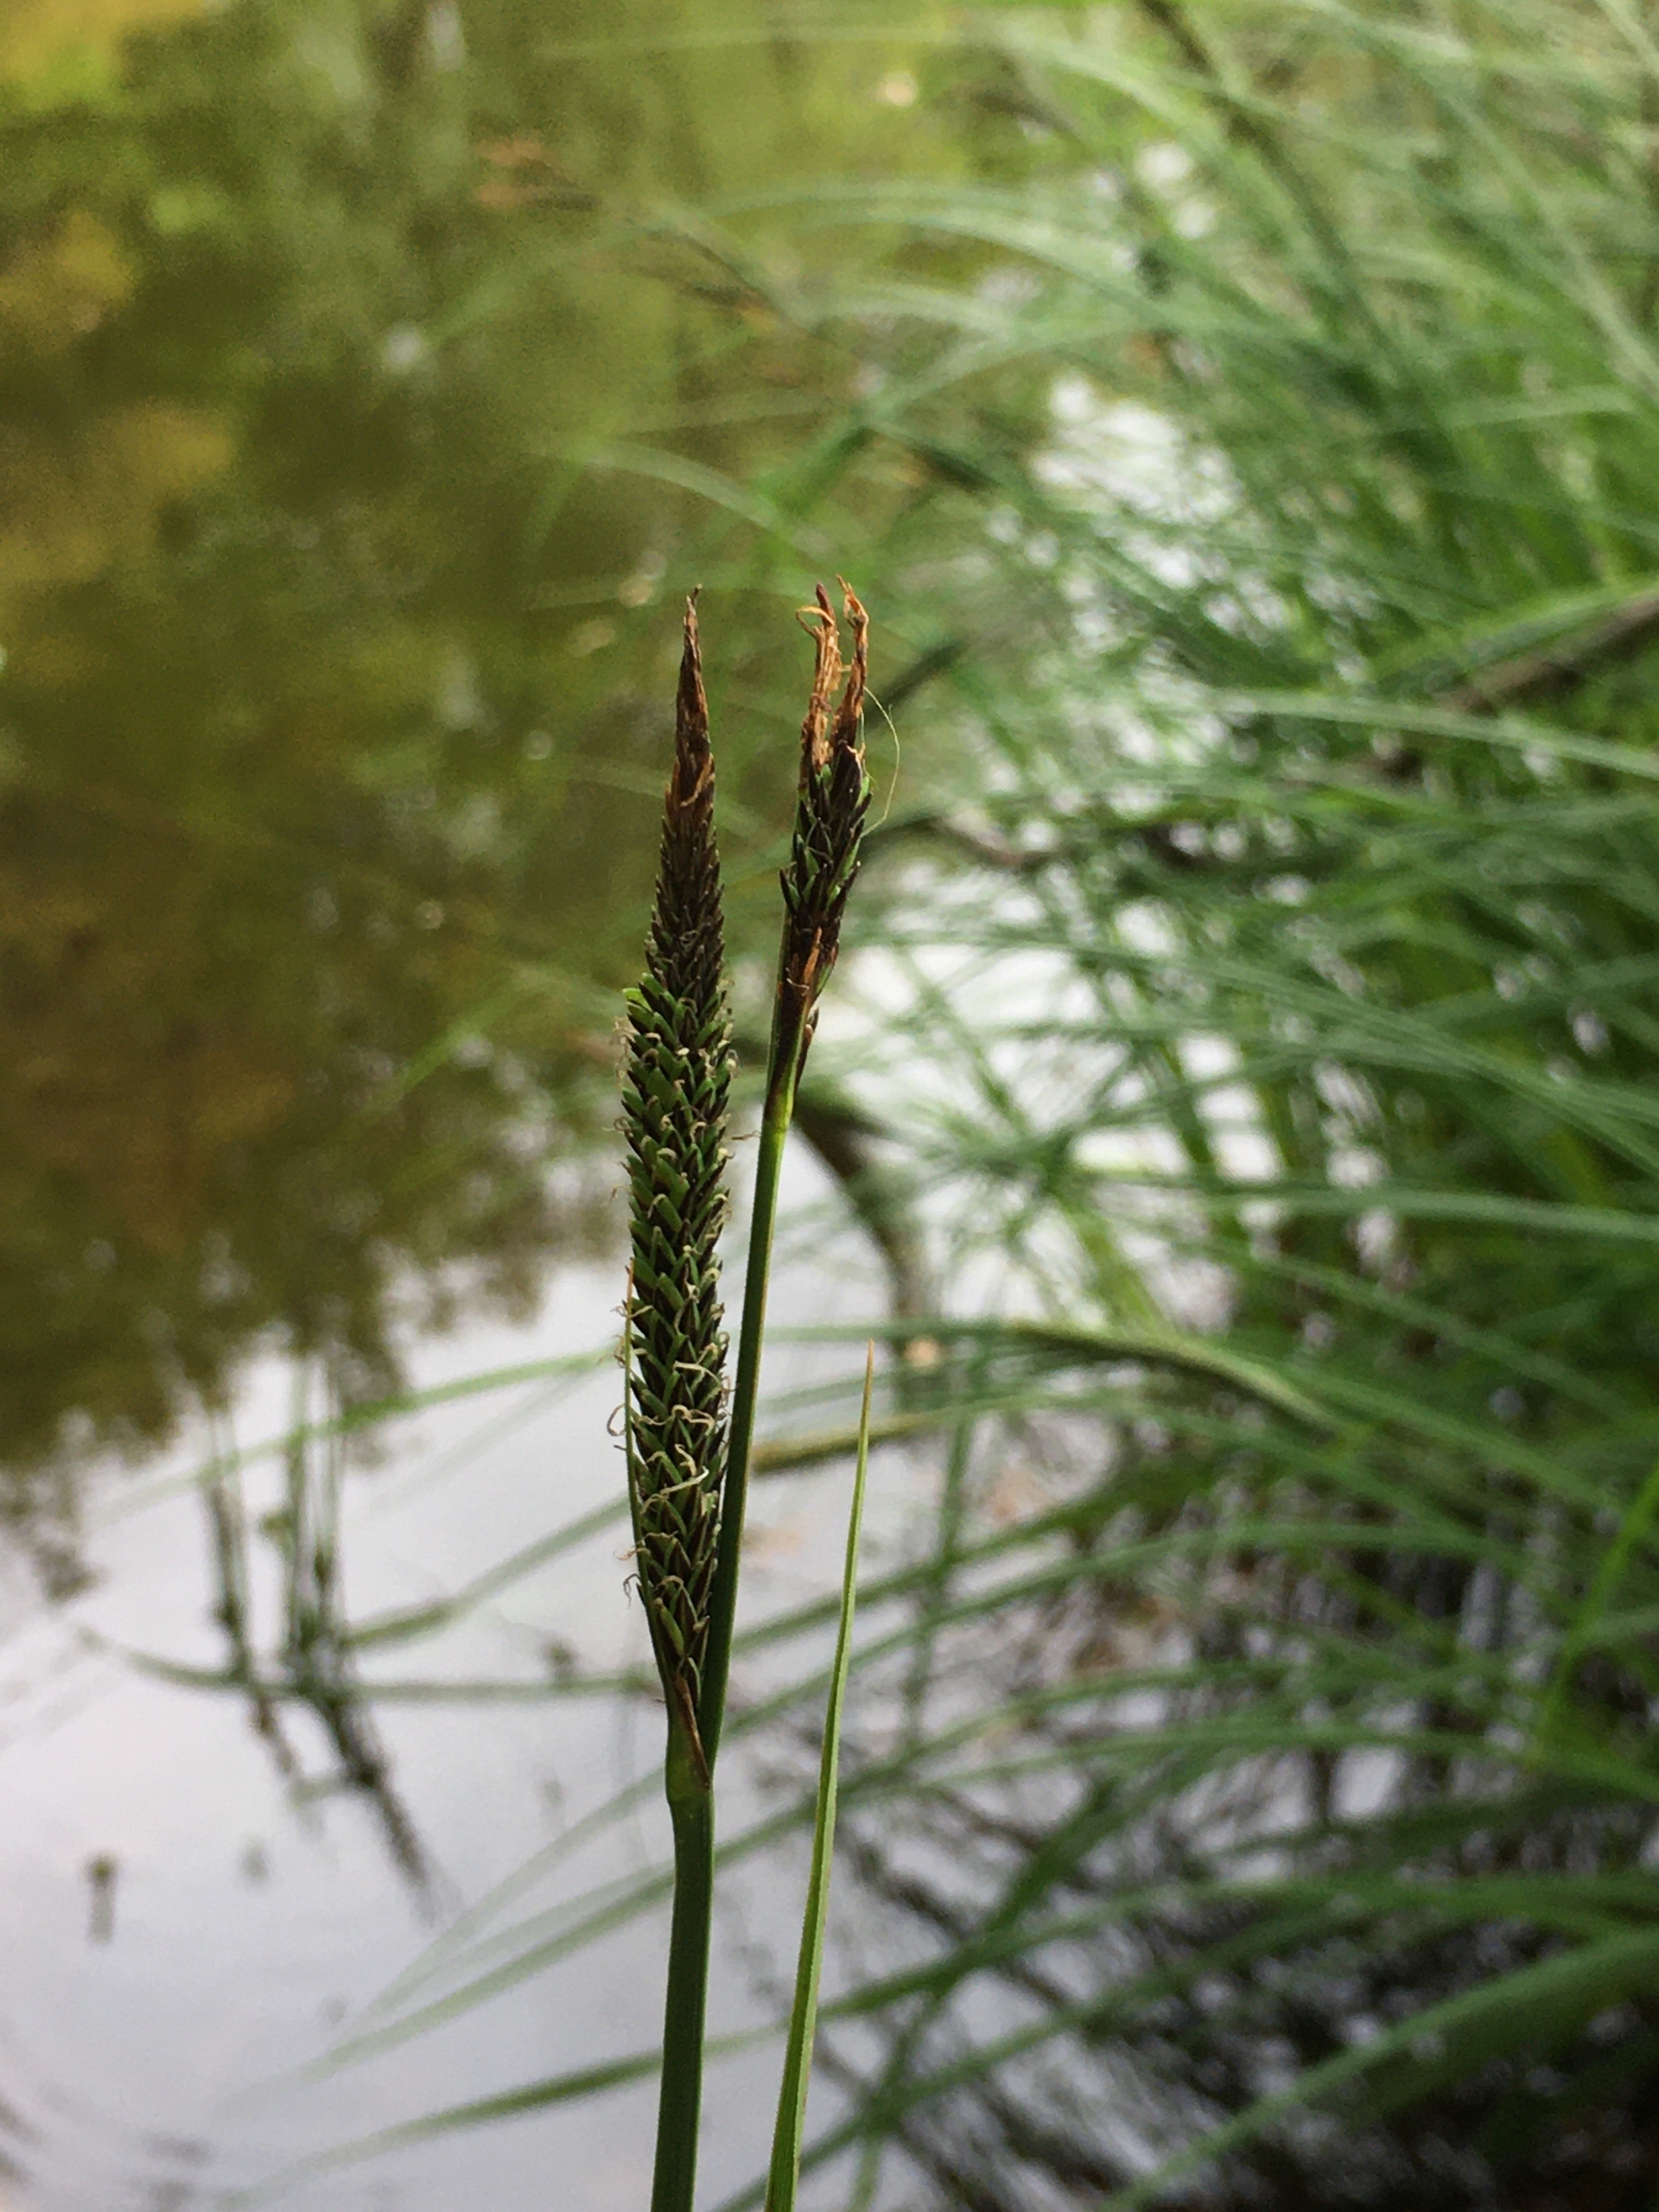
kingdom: Plantae
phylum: Tracheophyta
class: Liliopsida
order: Poales
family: Cyperaceae
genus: Carex
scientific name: Carex acuta
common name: Nikkende star
